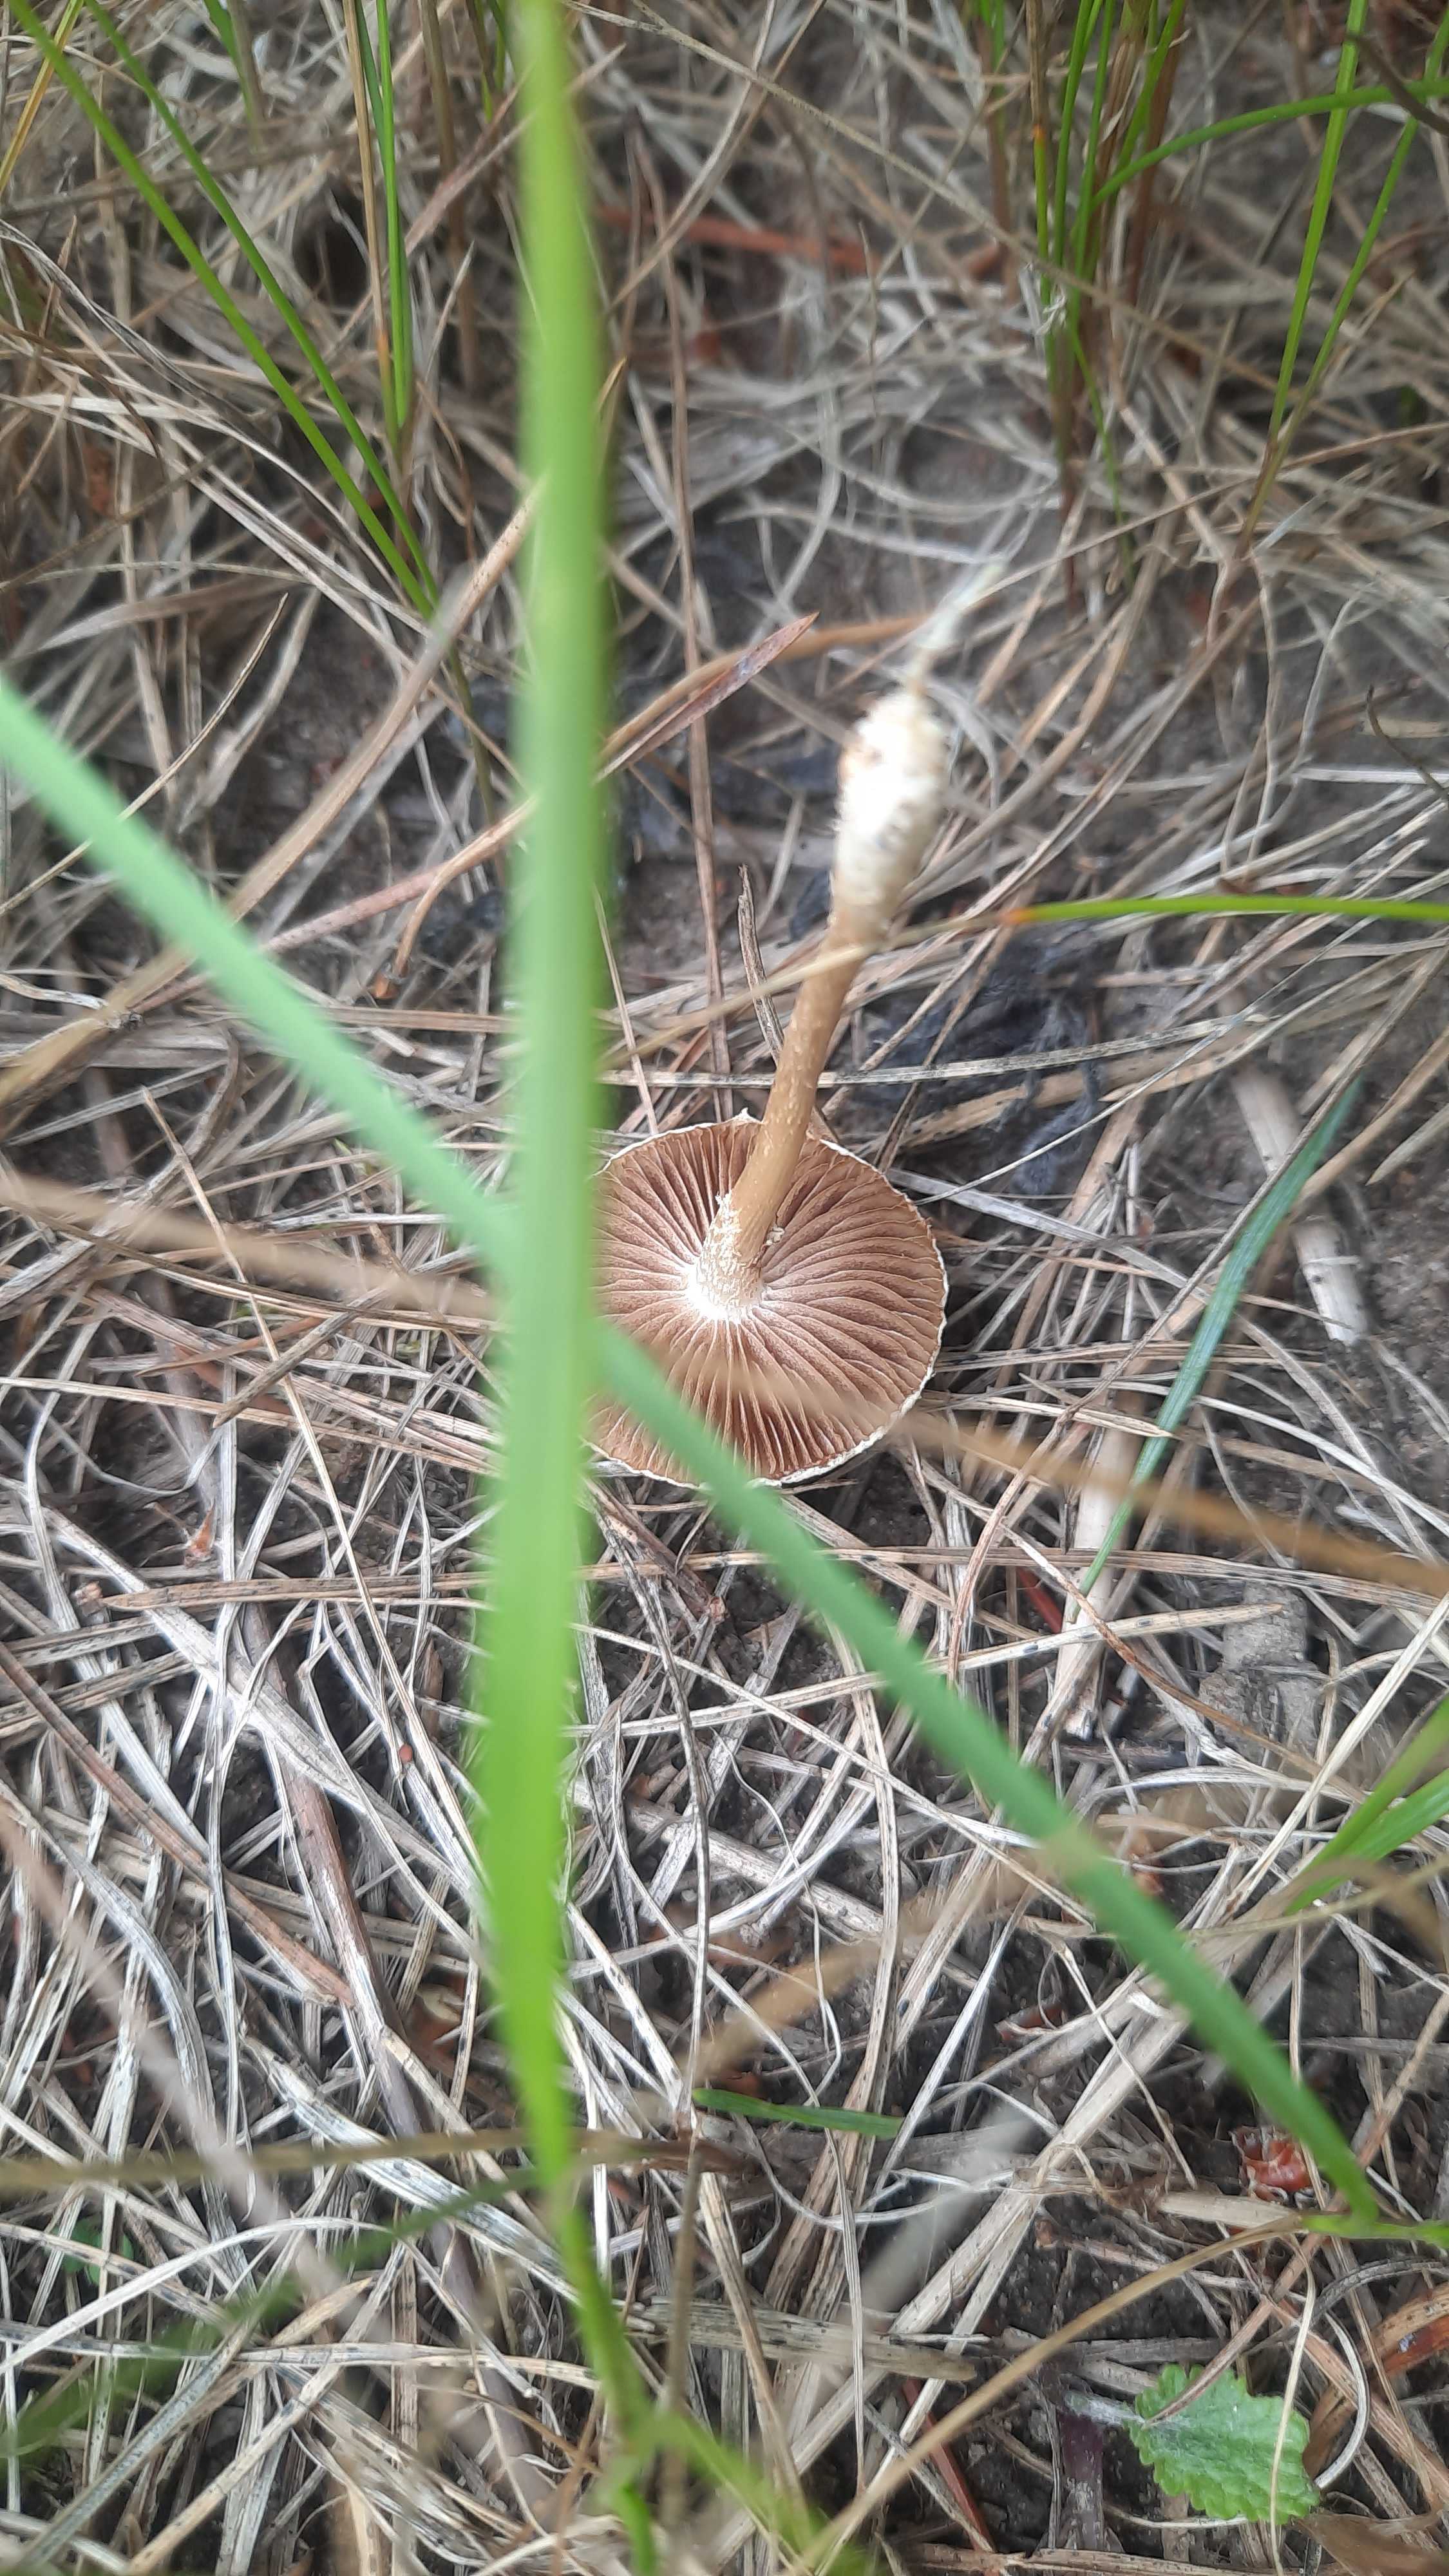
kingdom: Fungi
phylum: Basidiomycota
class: Agaricomycetes
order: Agaricales
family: Strophariaceae
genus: Agrocybe
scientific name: Agrocybe pediades
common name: almindelig agerhat
